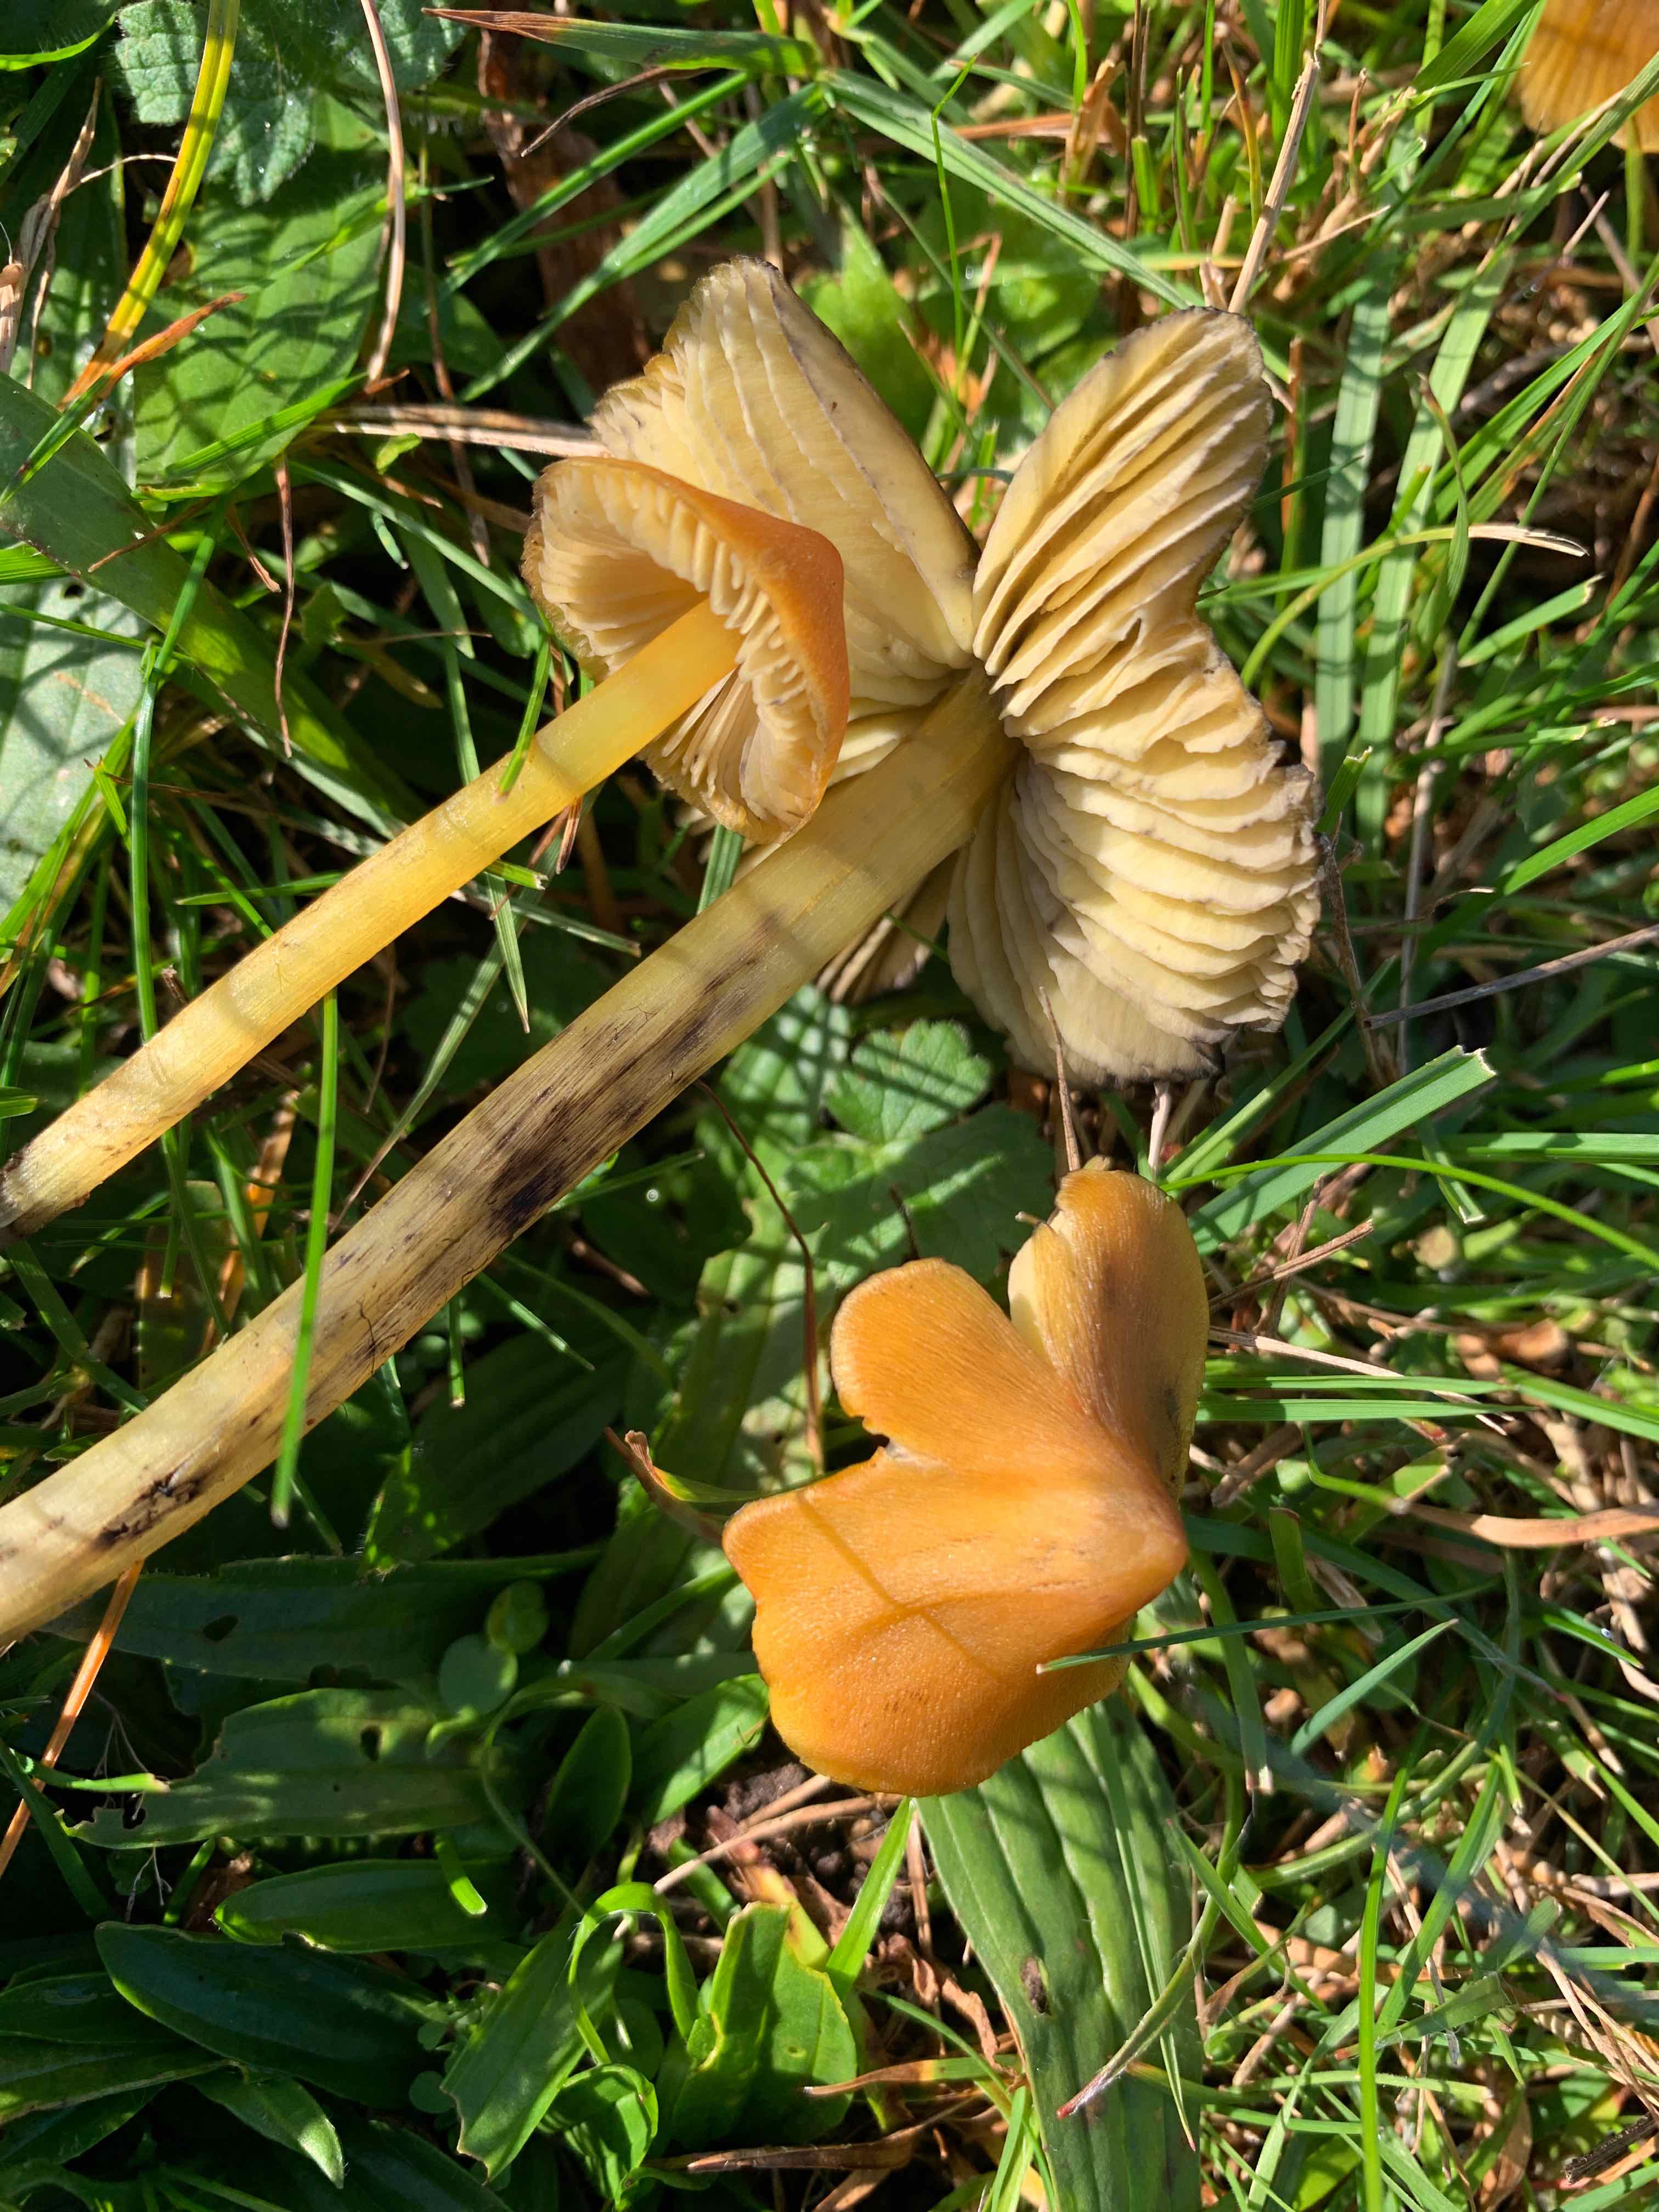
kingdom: Fungi
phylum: Basidiomycota
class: Agaricomycetes
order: Agaricales
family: Hygrophoraceae
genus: Hygrocybe
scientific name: Hygrocybe conica
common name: kegle-vokshat
